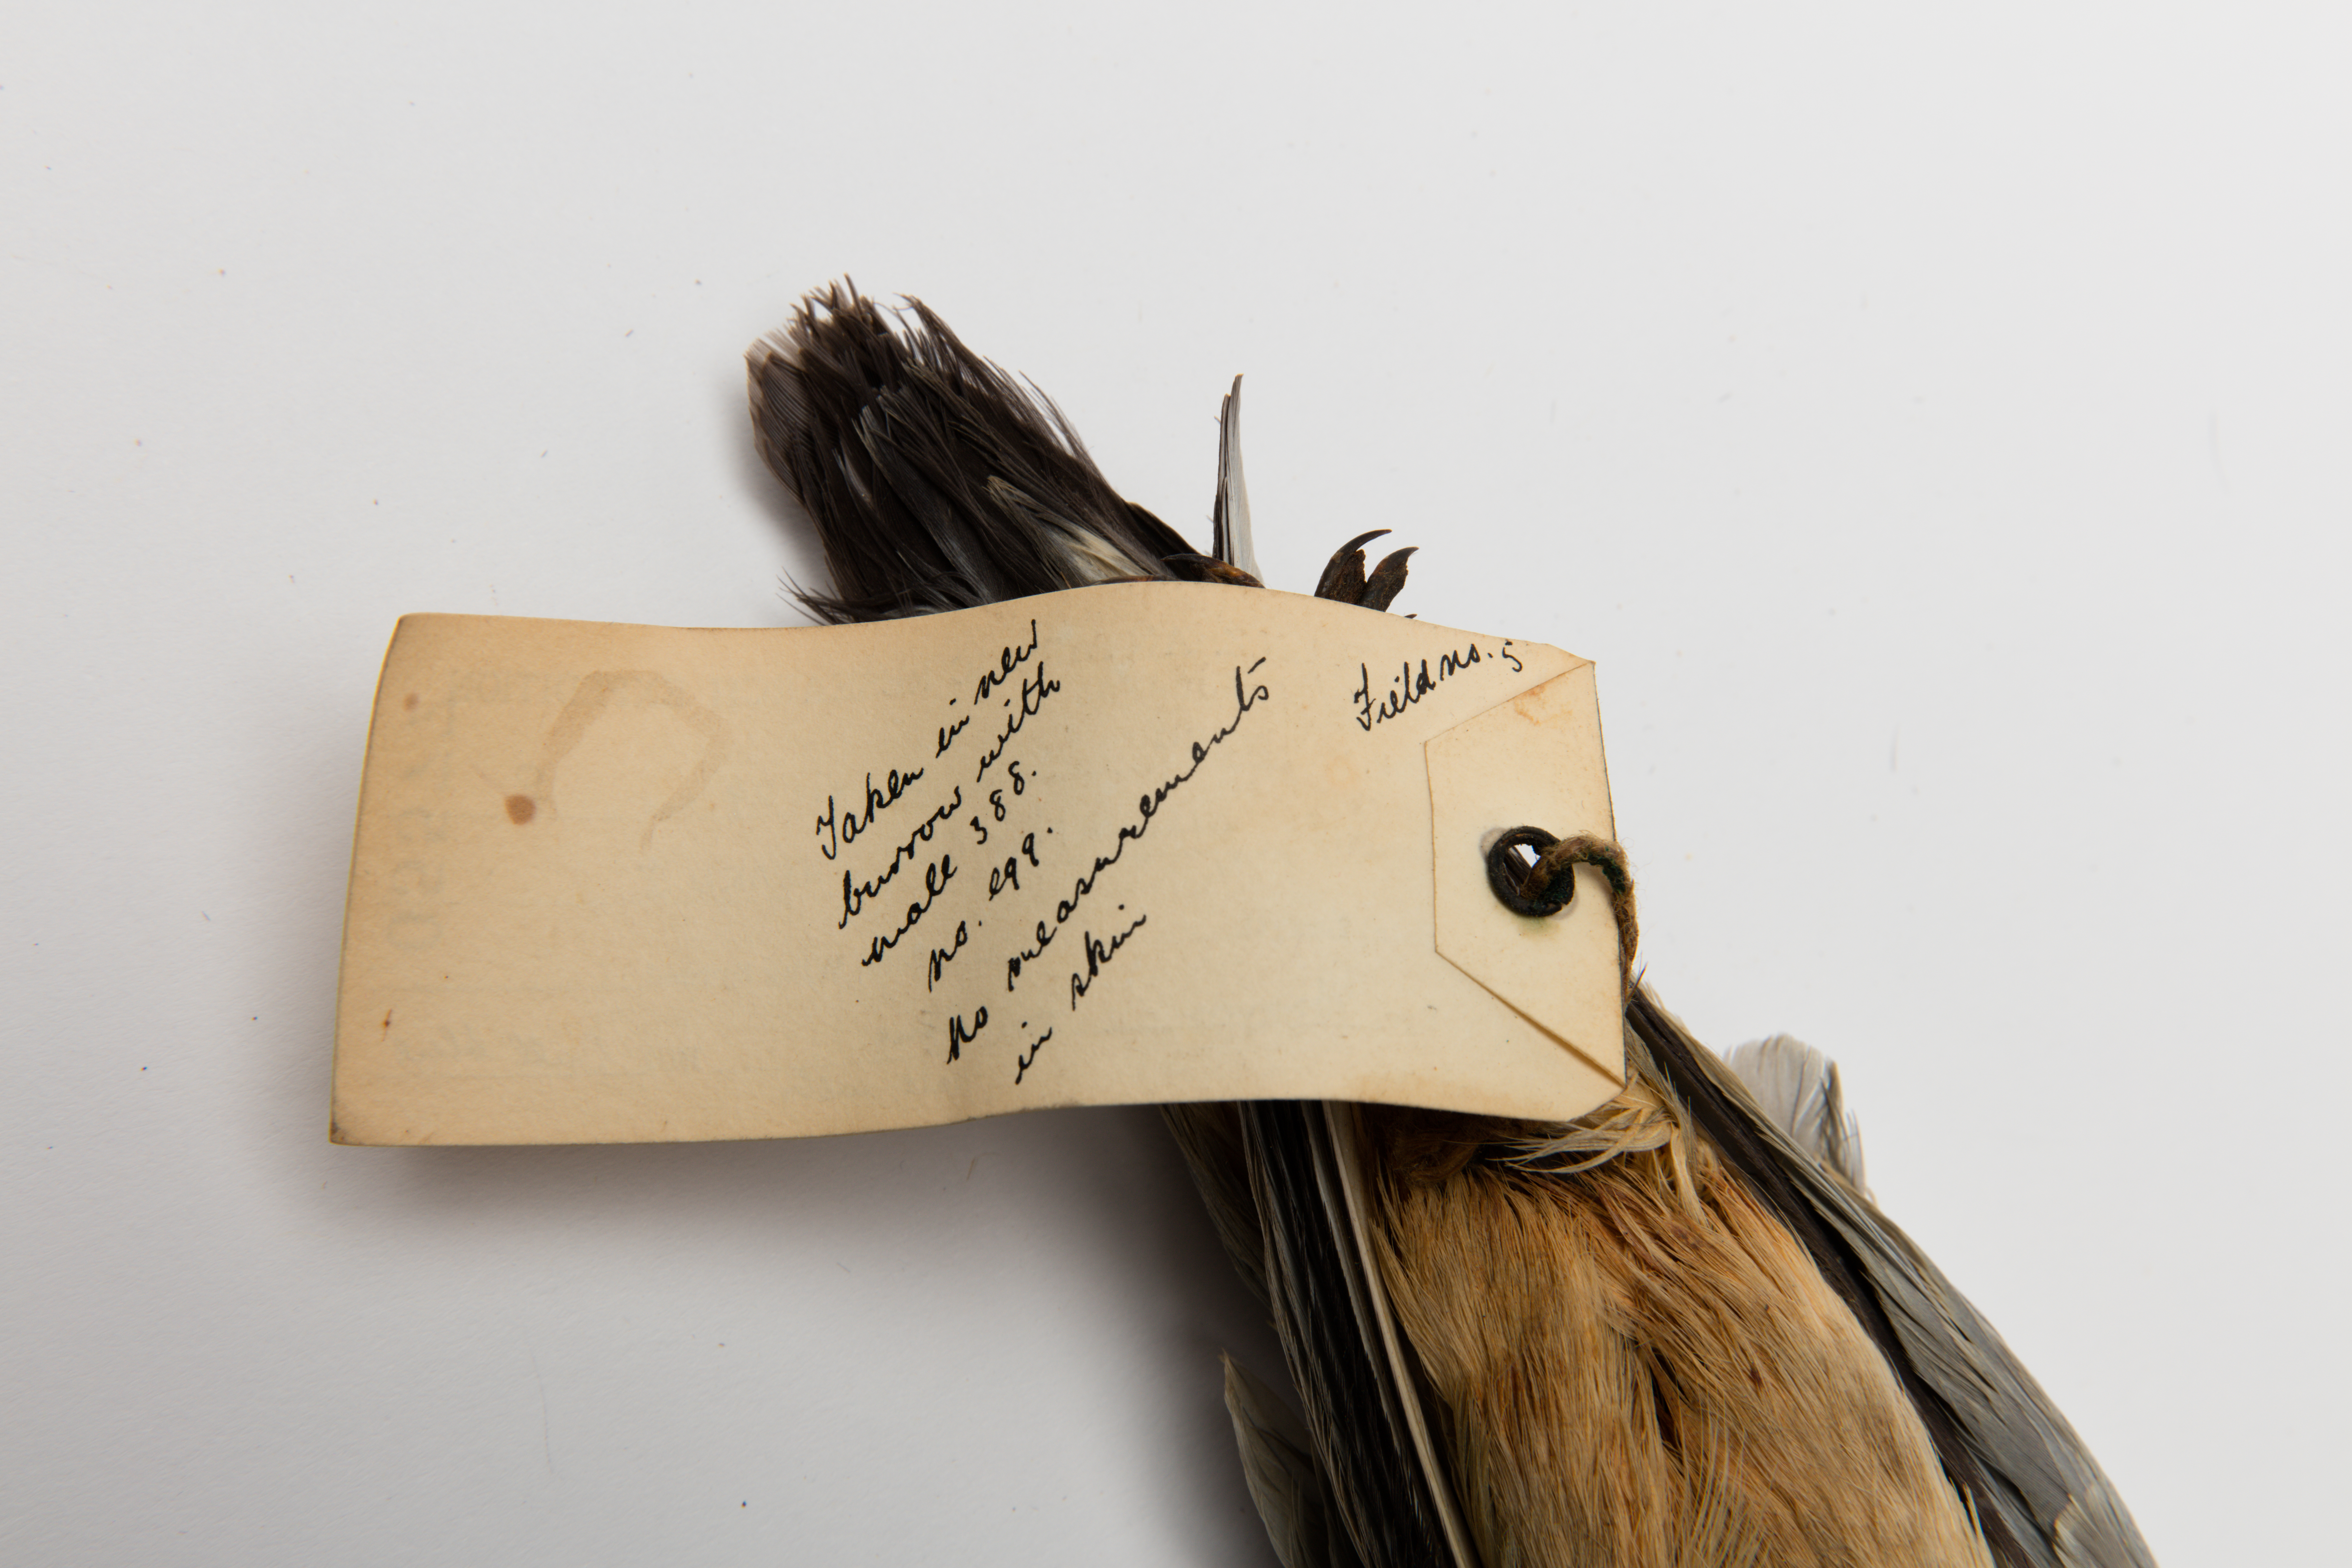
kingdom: Animalia
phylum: Chordata
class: Aves
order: Procellariiformes
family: Procellariidae
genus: Pachyptila
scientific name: Pachyptila desolata
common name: Antarctic prion
